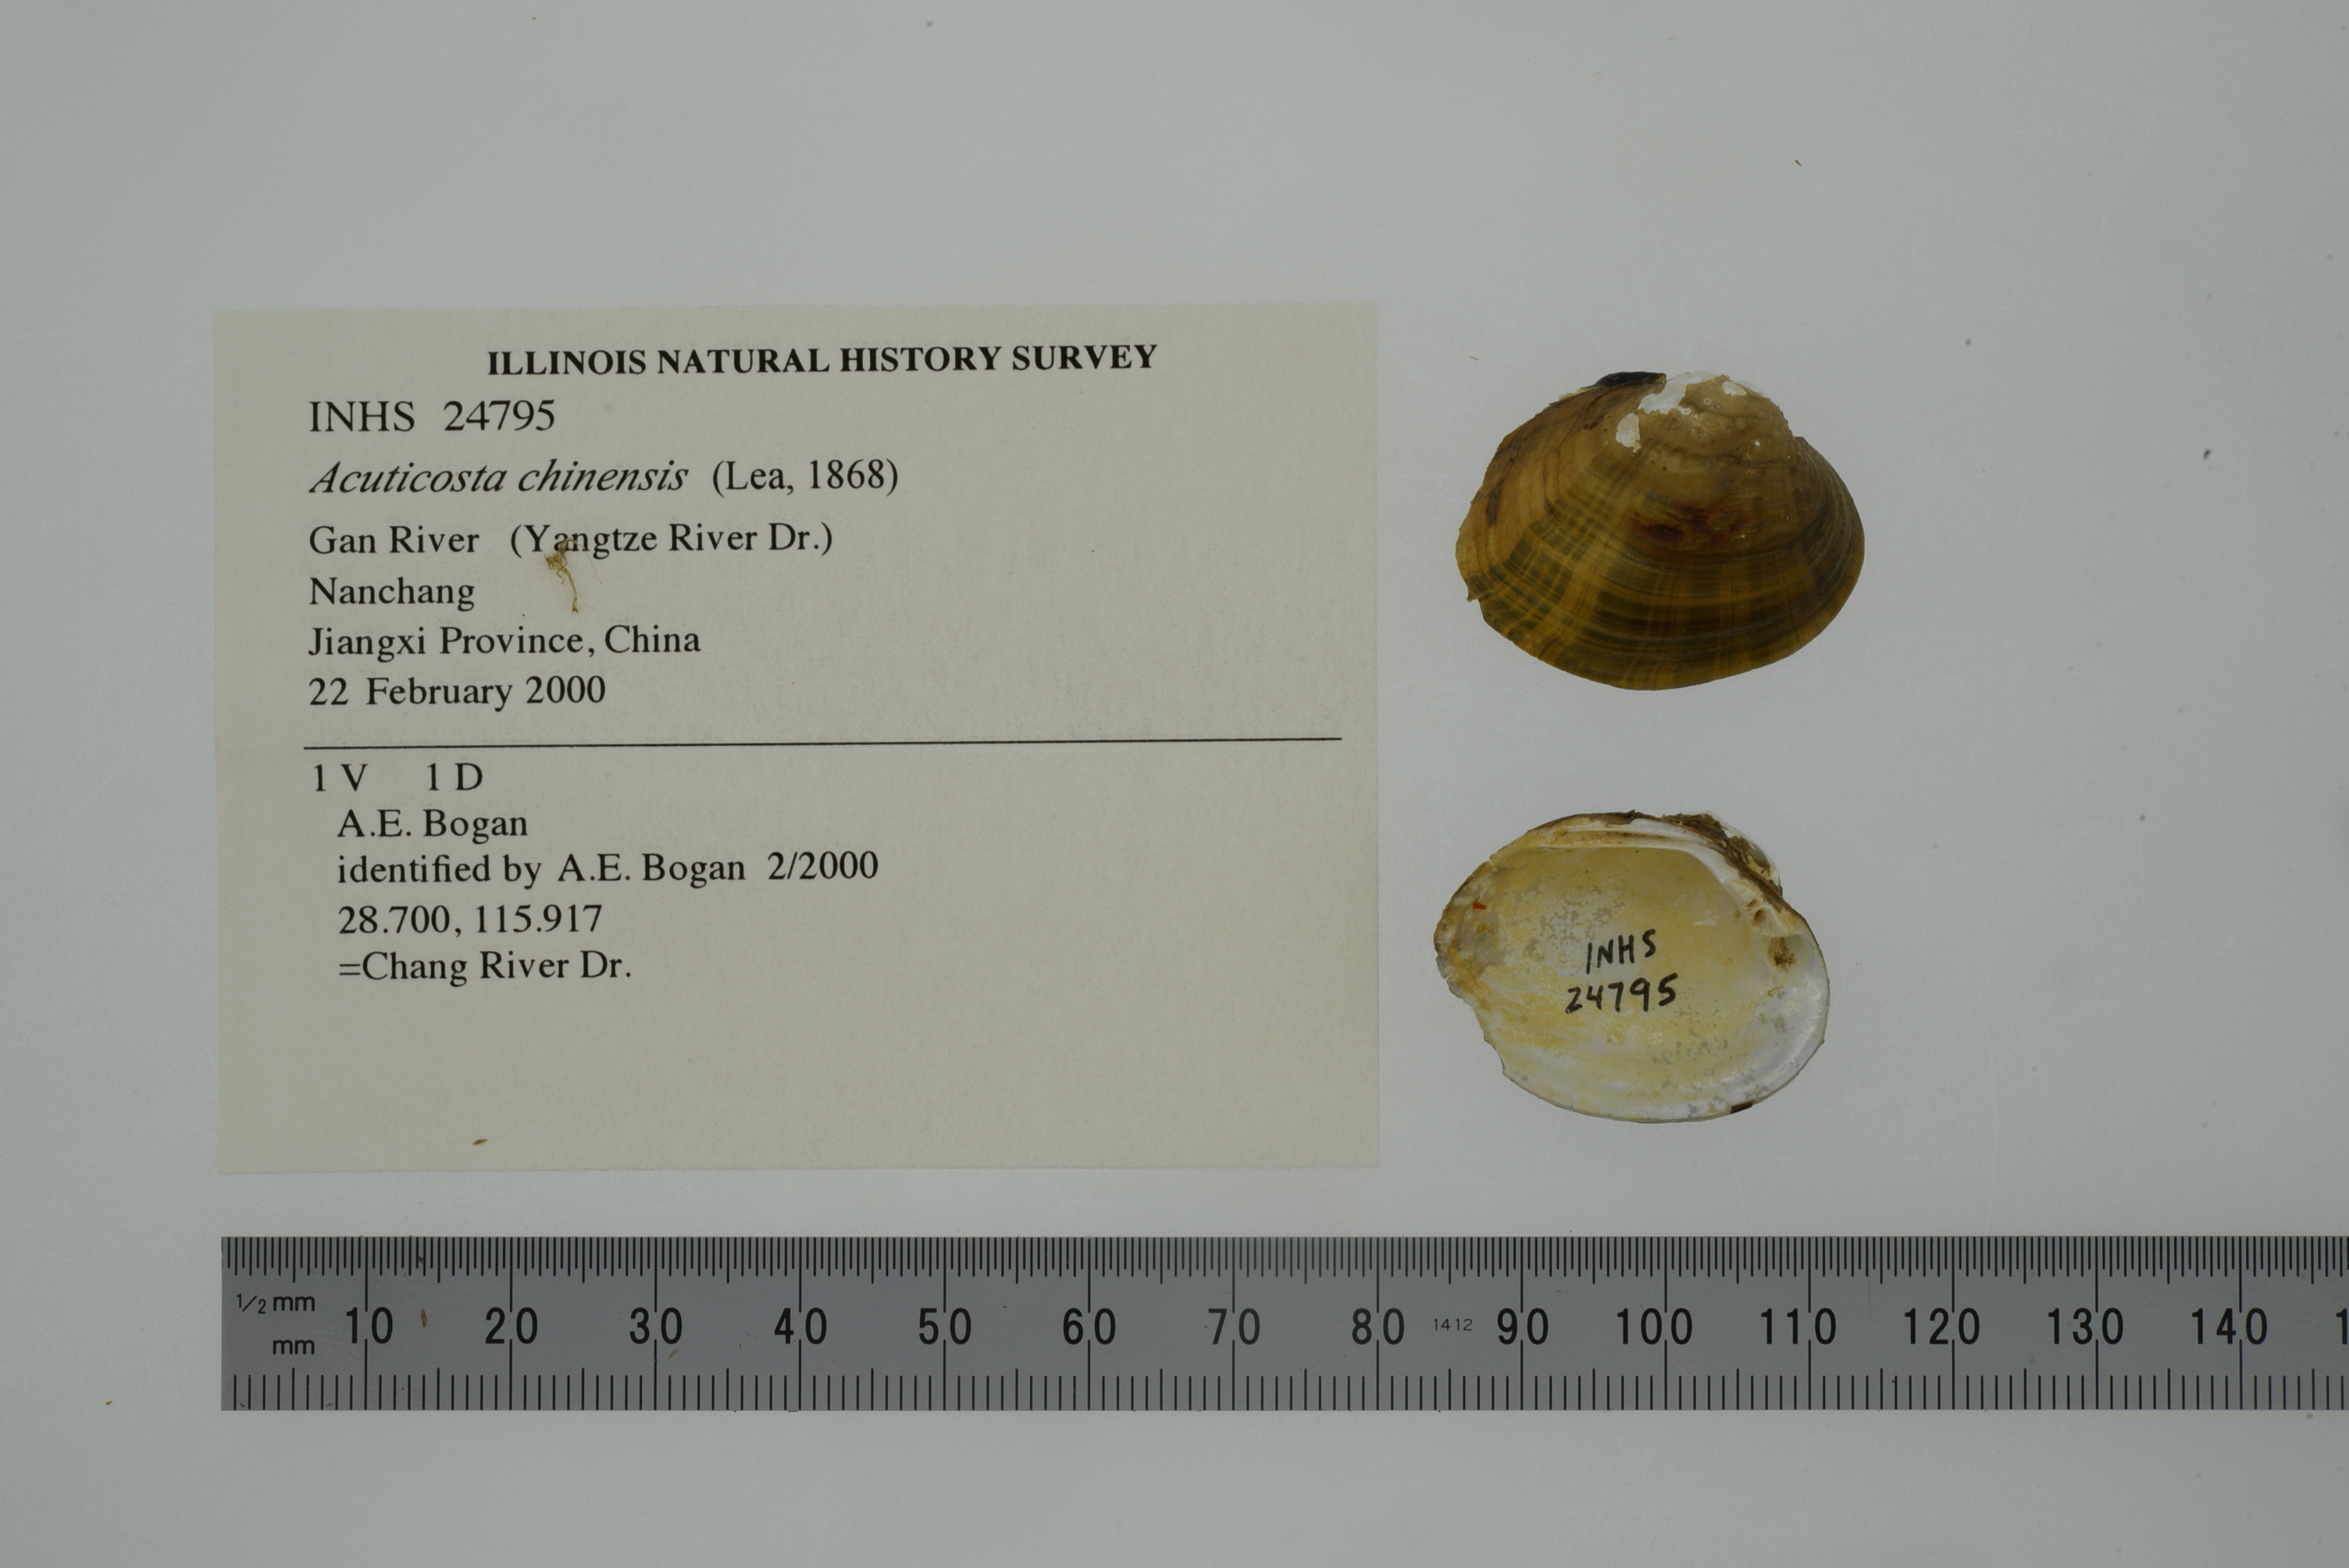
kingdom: Animalia
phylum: Mollusca
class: Bivalvia
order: Unionida
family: Unionidae
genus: Acuticosta
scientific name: Acuticosta chinensis
